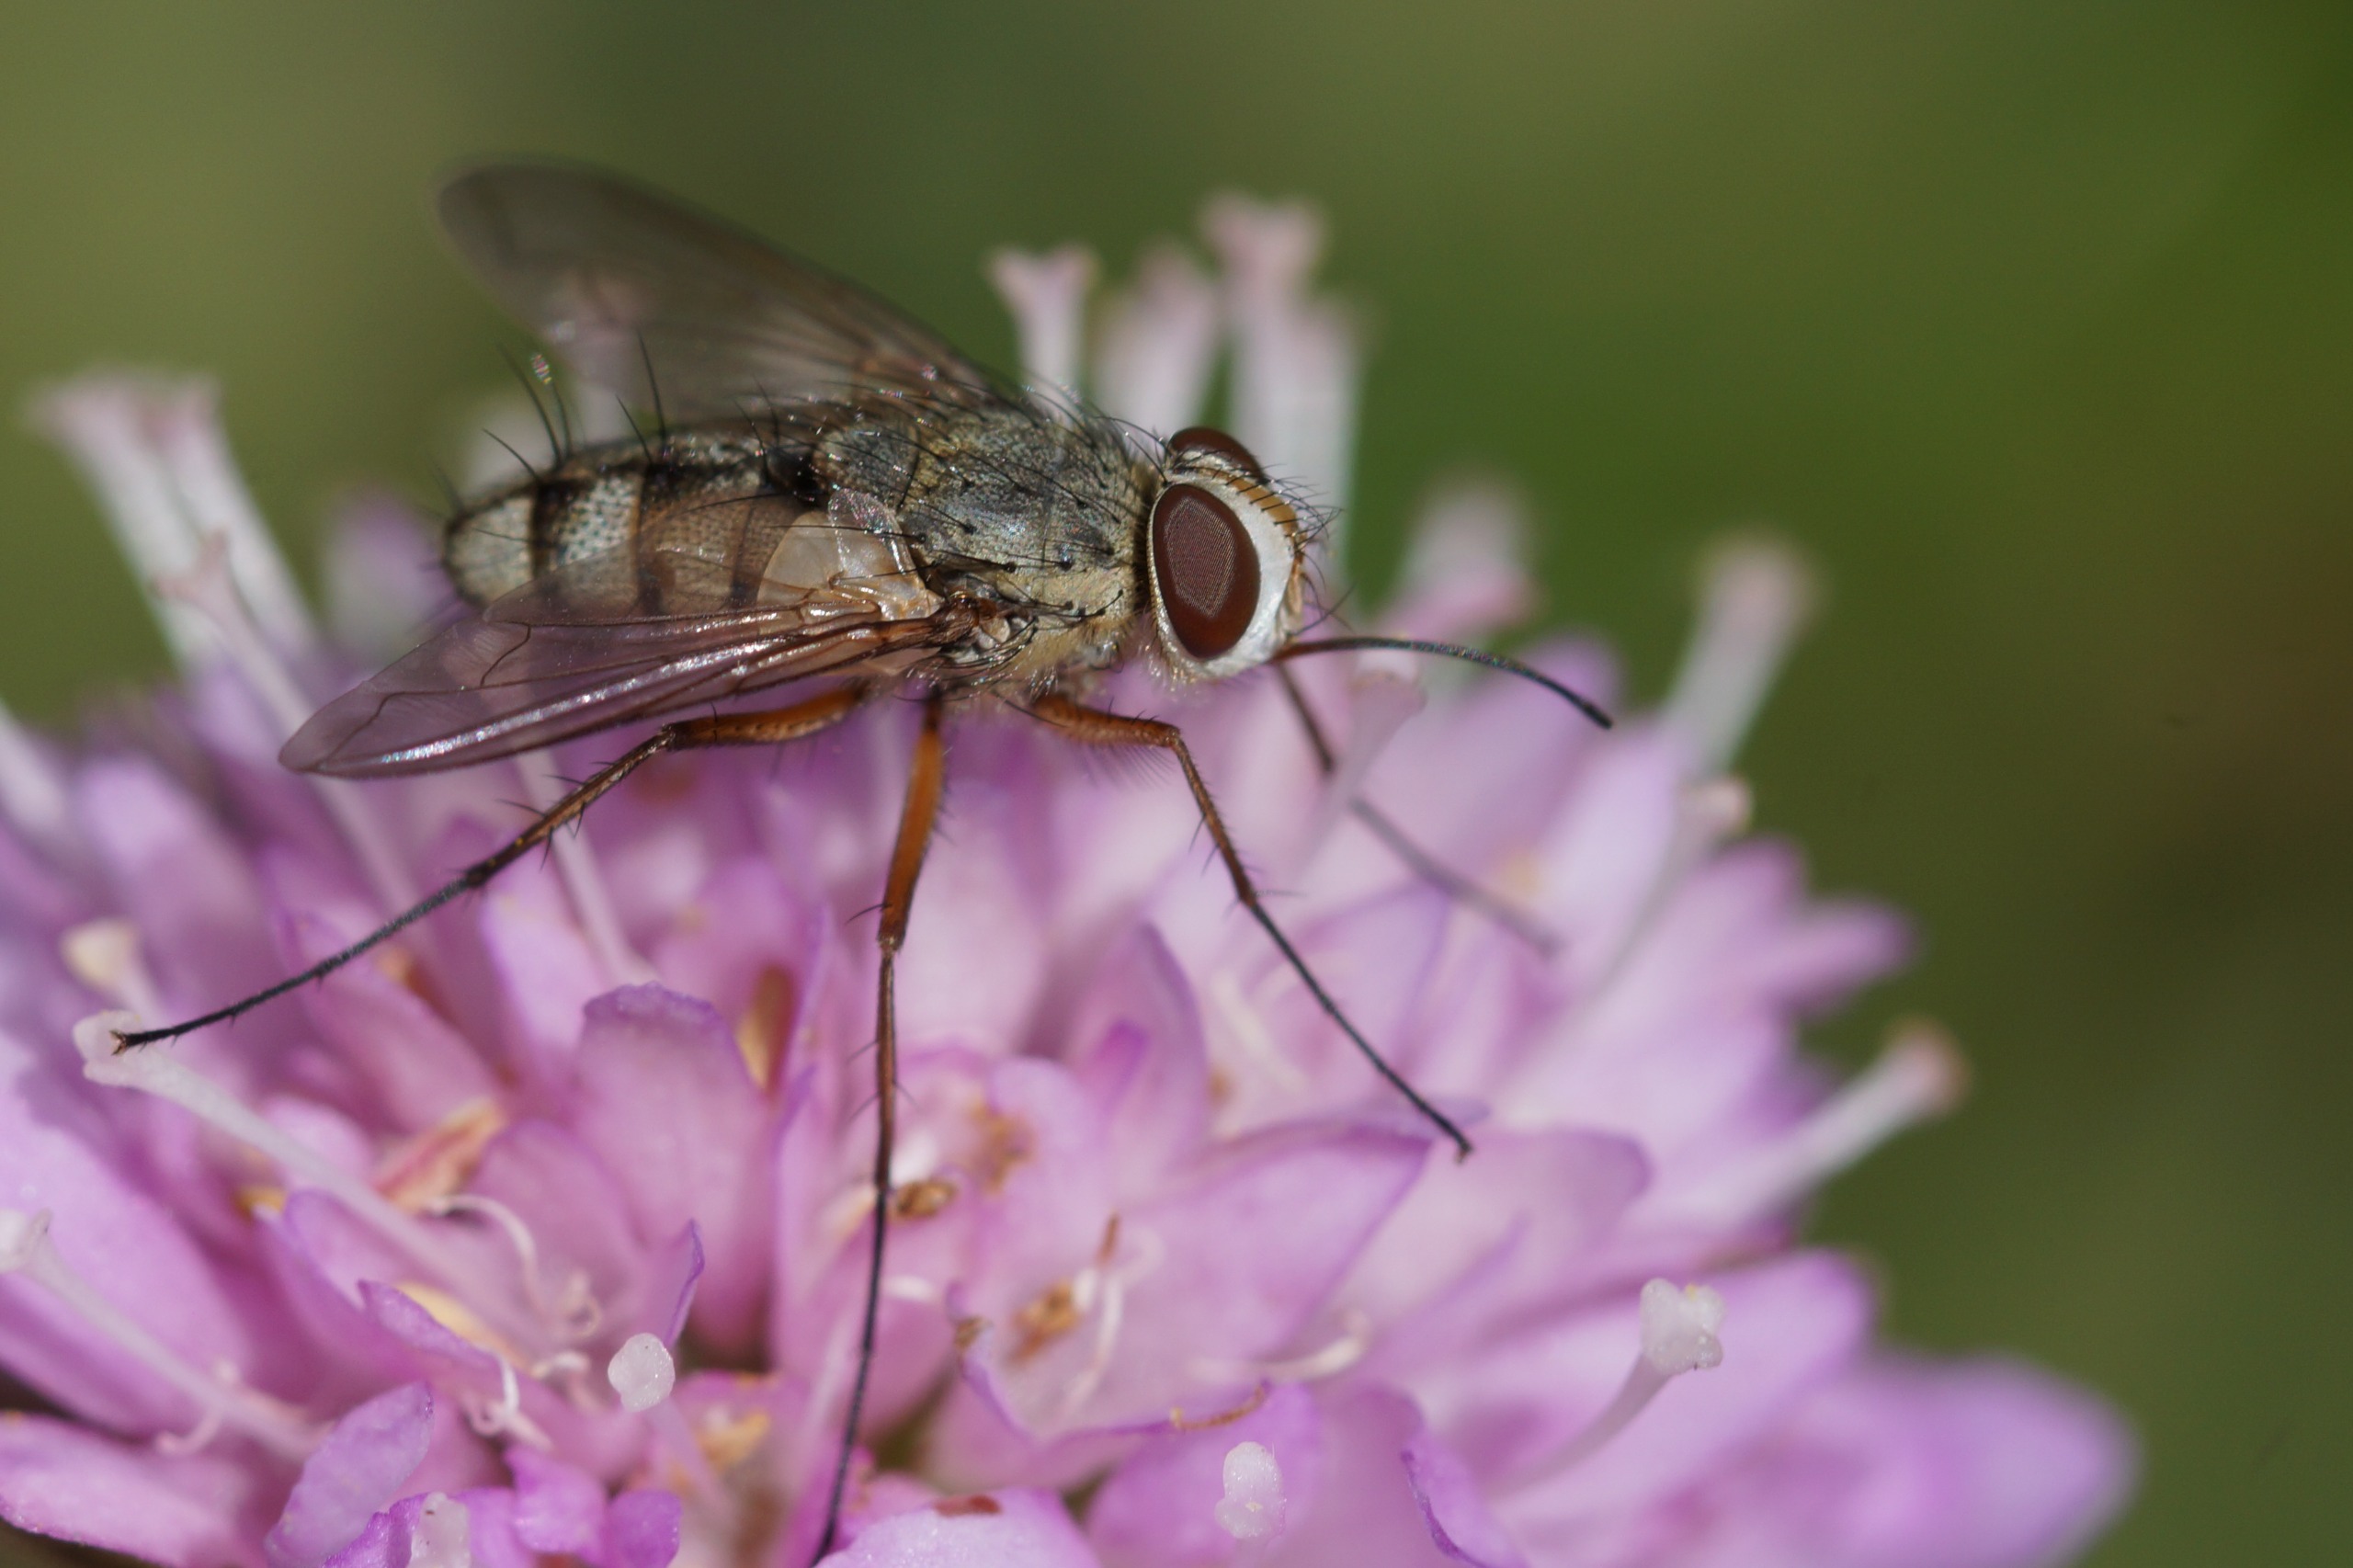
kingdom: Animalia
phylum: Arthropoda
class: Insecta
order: Diptera
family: Tachinidae
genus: Prosena
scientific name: Prosena siberita
